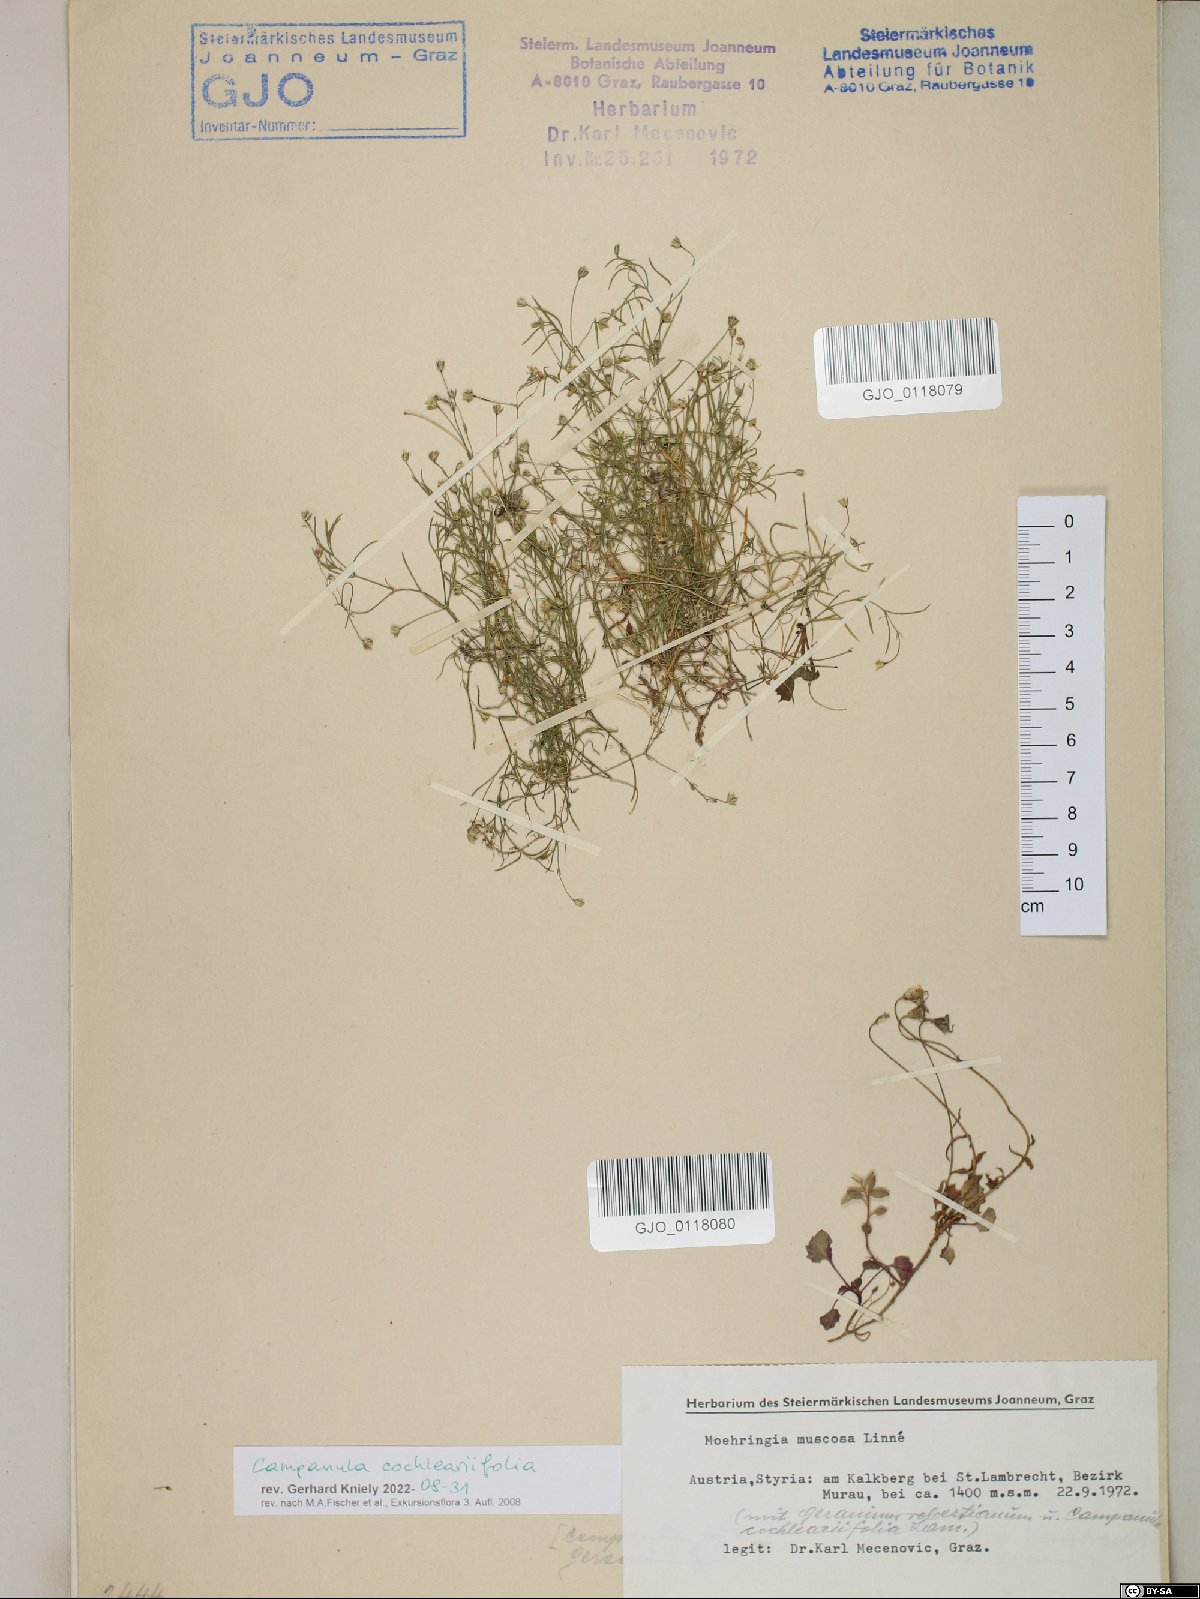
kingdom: Plantae
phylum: Tracheophyta
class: Magnoliopsida
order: Caryophyllales
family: Caryophyllaceae
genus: Moehringia
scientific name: Moehringia muscosa
